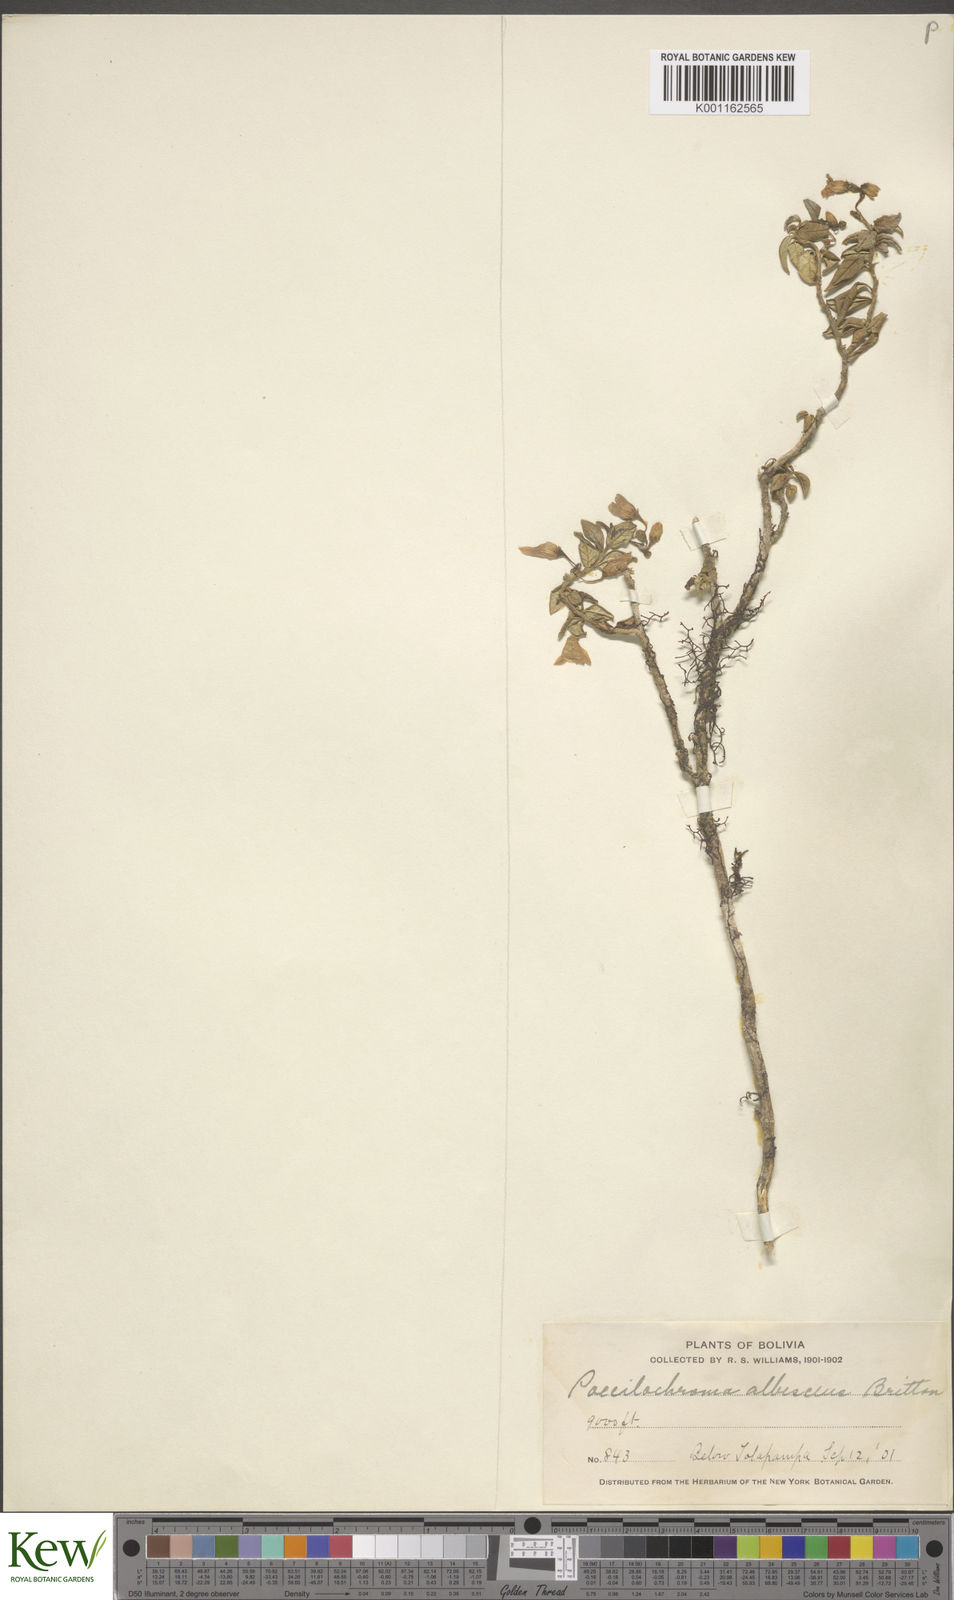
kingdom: Plantae
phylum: Tracheophyta
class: Magnoliopsida
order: Solanales
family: Solanaceae
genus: Solanum
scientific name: Solanum albescens
